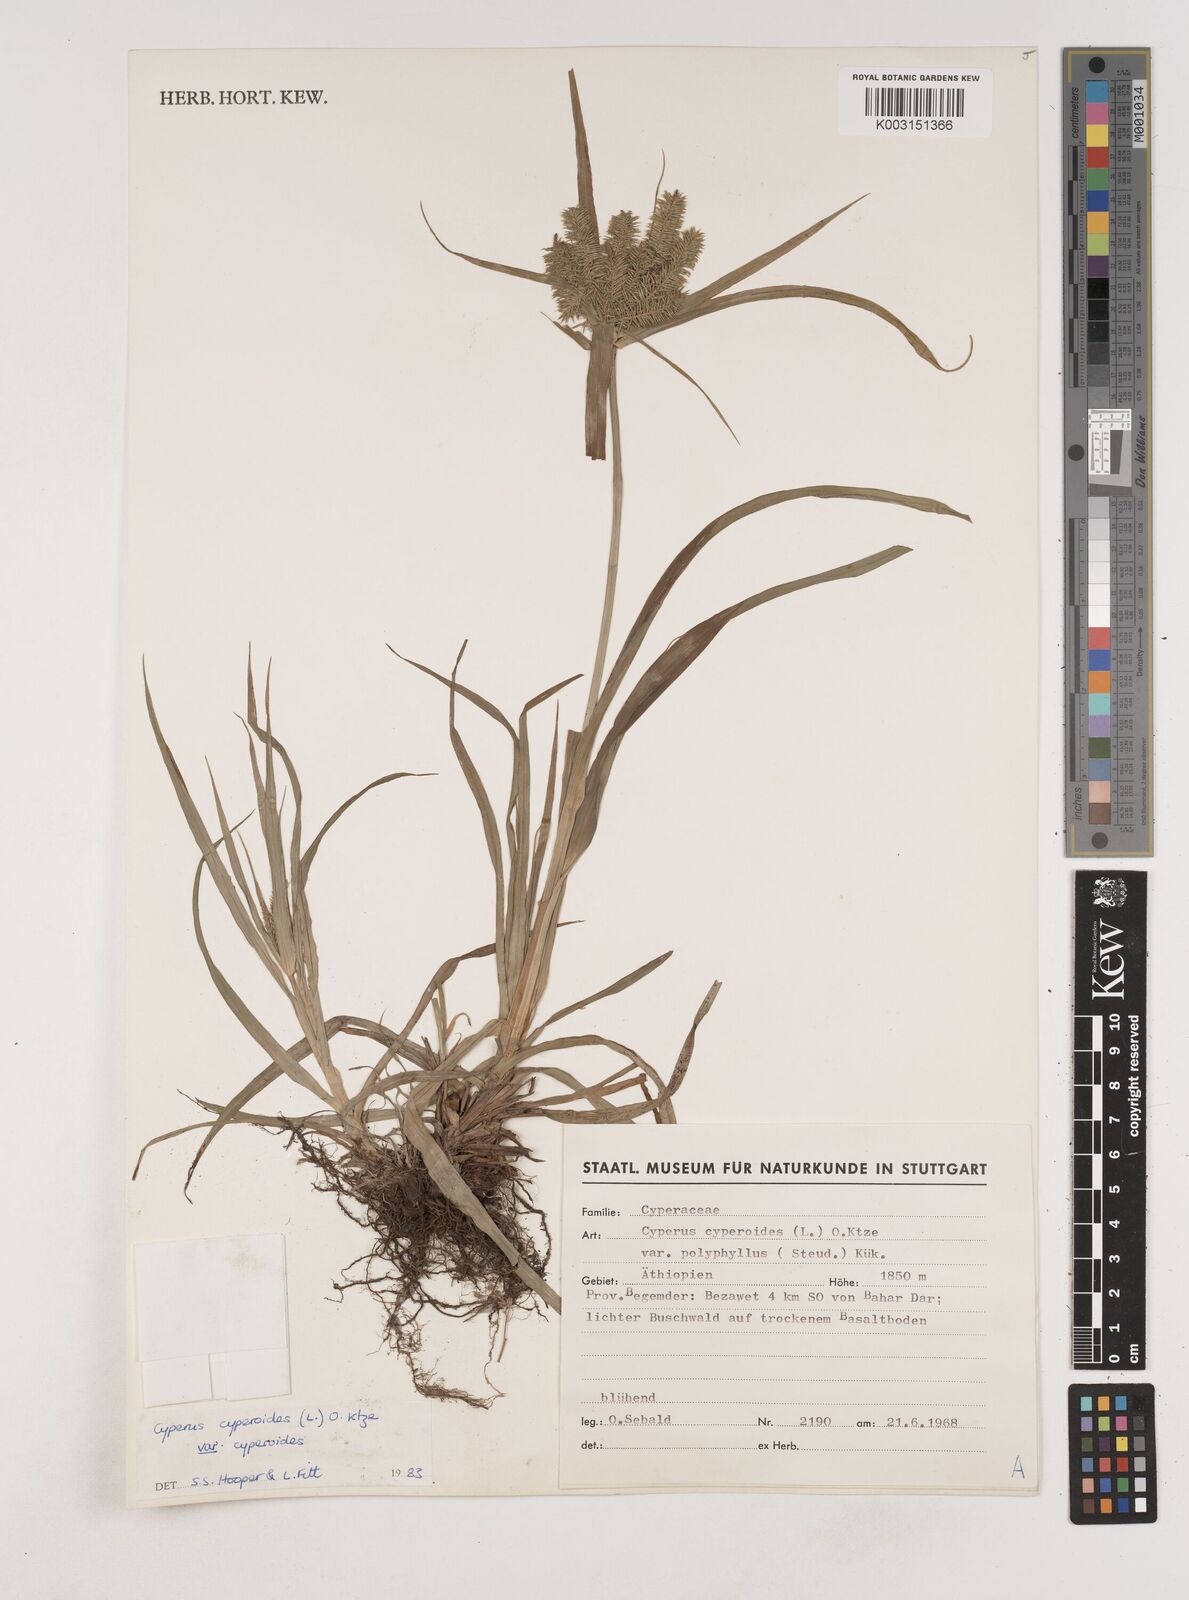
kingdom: Plantae
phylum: Tracheophyta
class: Liliopsida
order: Poales
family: Cyperaceae
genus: Cyperus
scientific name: Cyperus cyperoides
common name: Pacific island flat sedge
